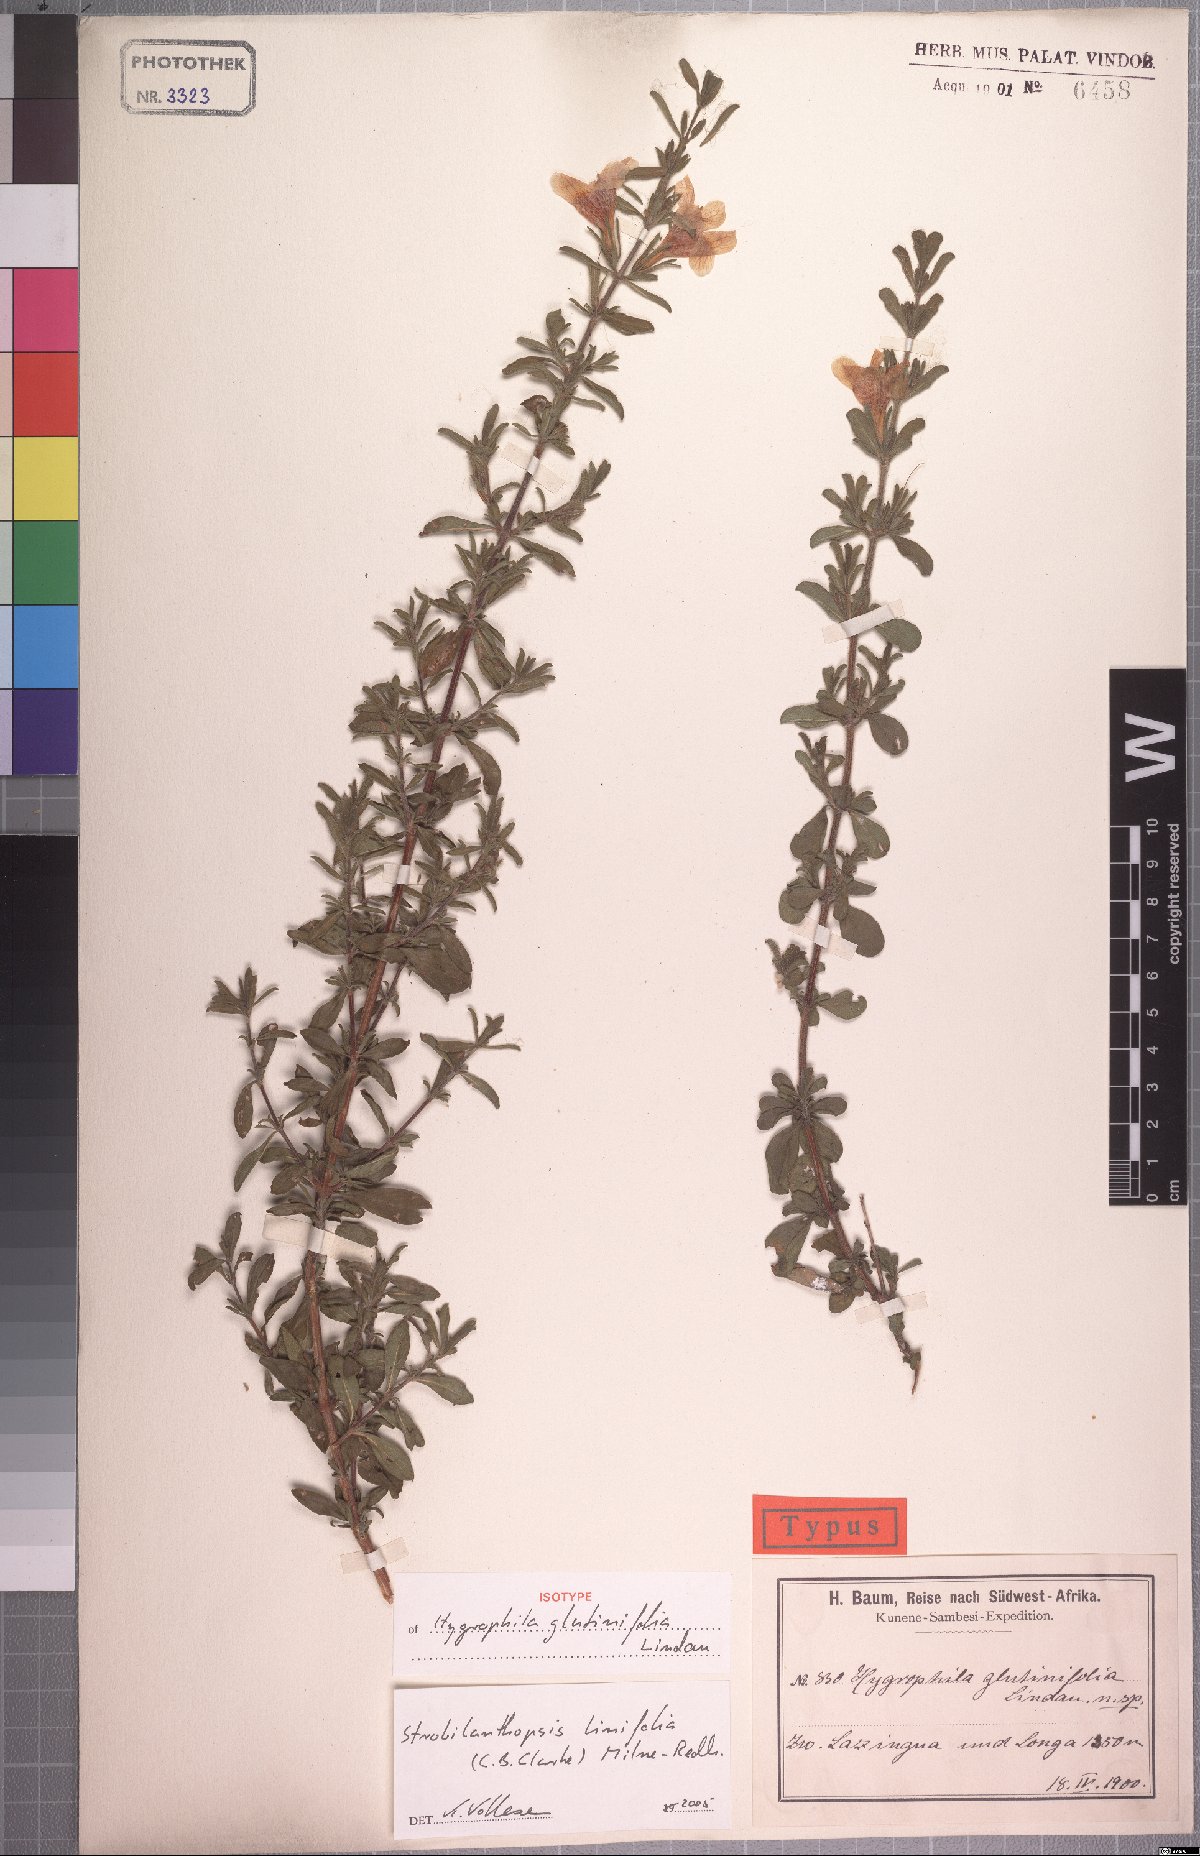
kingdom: Plantae
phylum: Tracheophyta
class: Magnoliopsida
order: Lamiales
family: Acanthaceae
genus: Strobilanthopsis
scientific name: Strobilanthopsis linifolia
